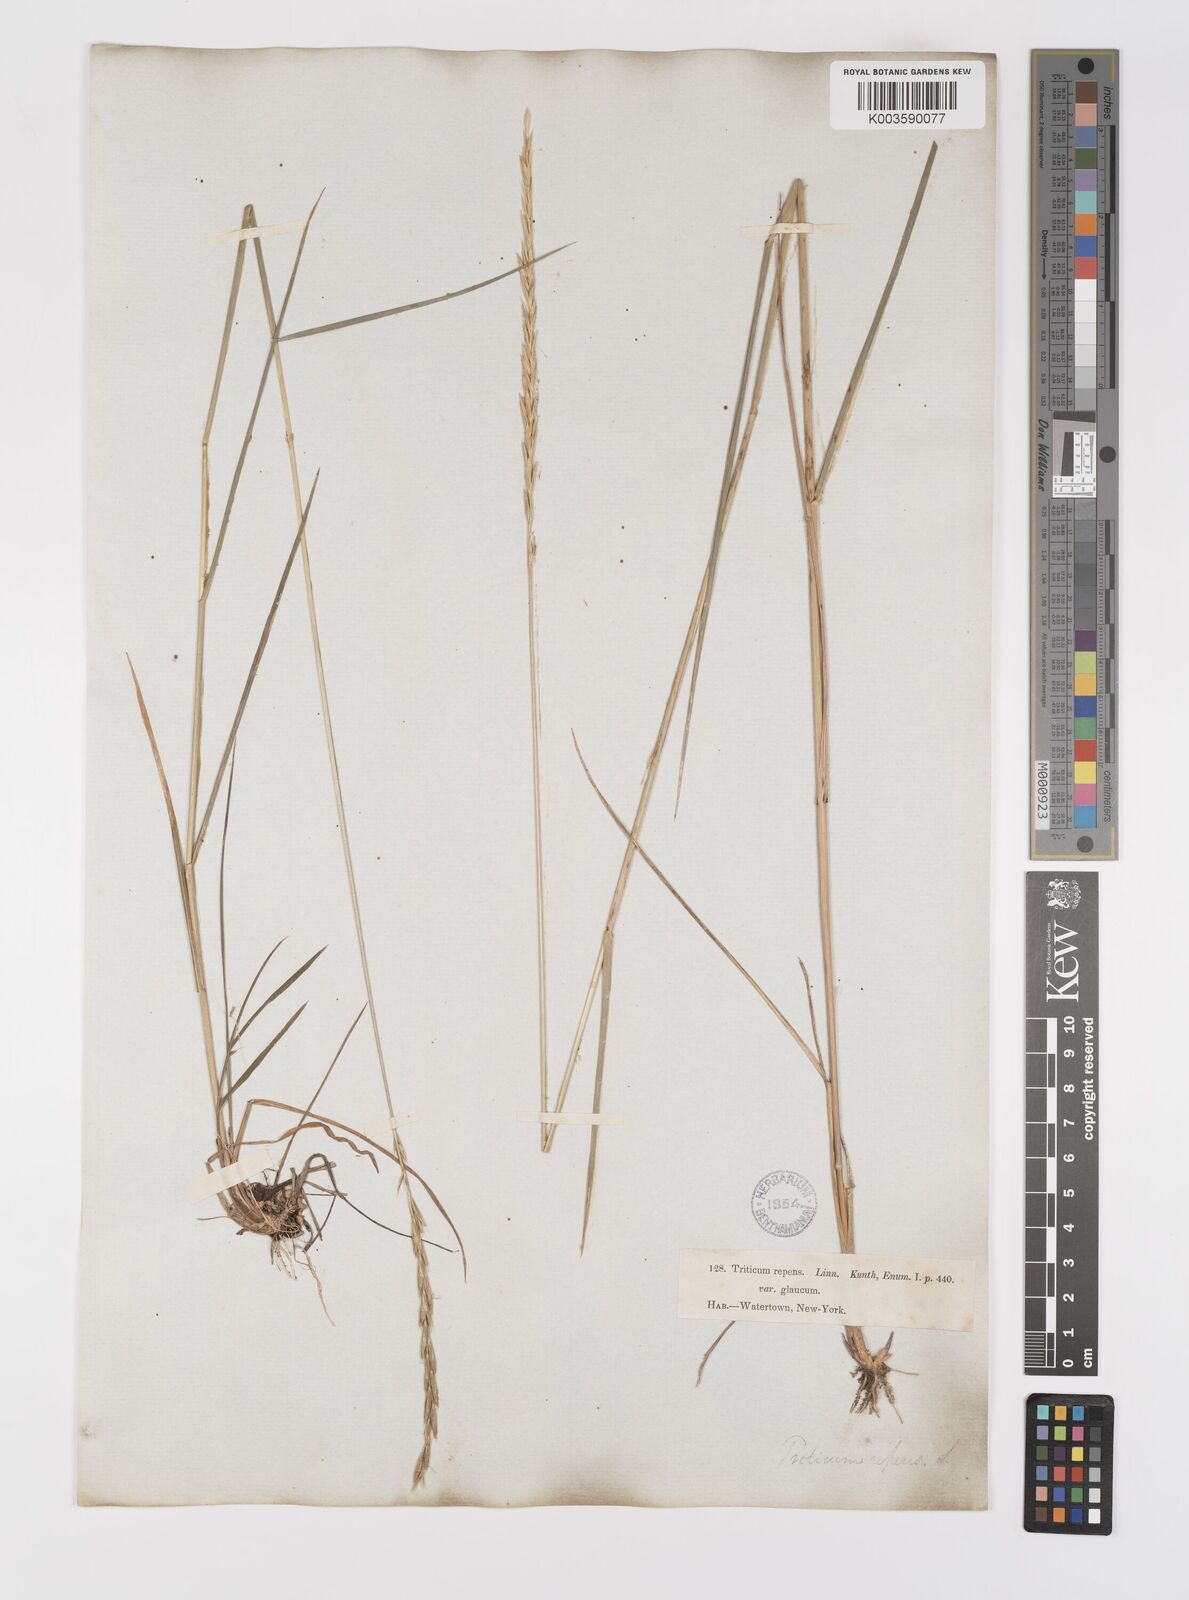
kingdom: Plantae
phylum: Tracheophyta
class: Liliopsida
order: Poales
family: Poaceae
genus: Elymus
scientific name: Elymus repens
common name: Quackgrass
